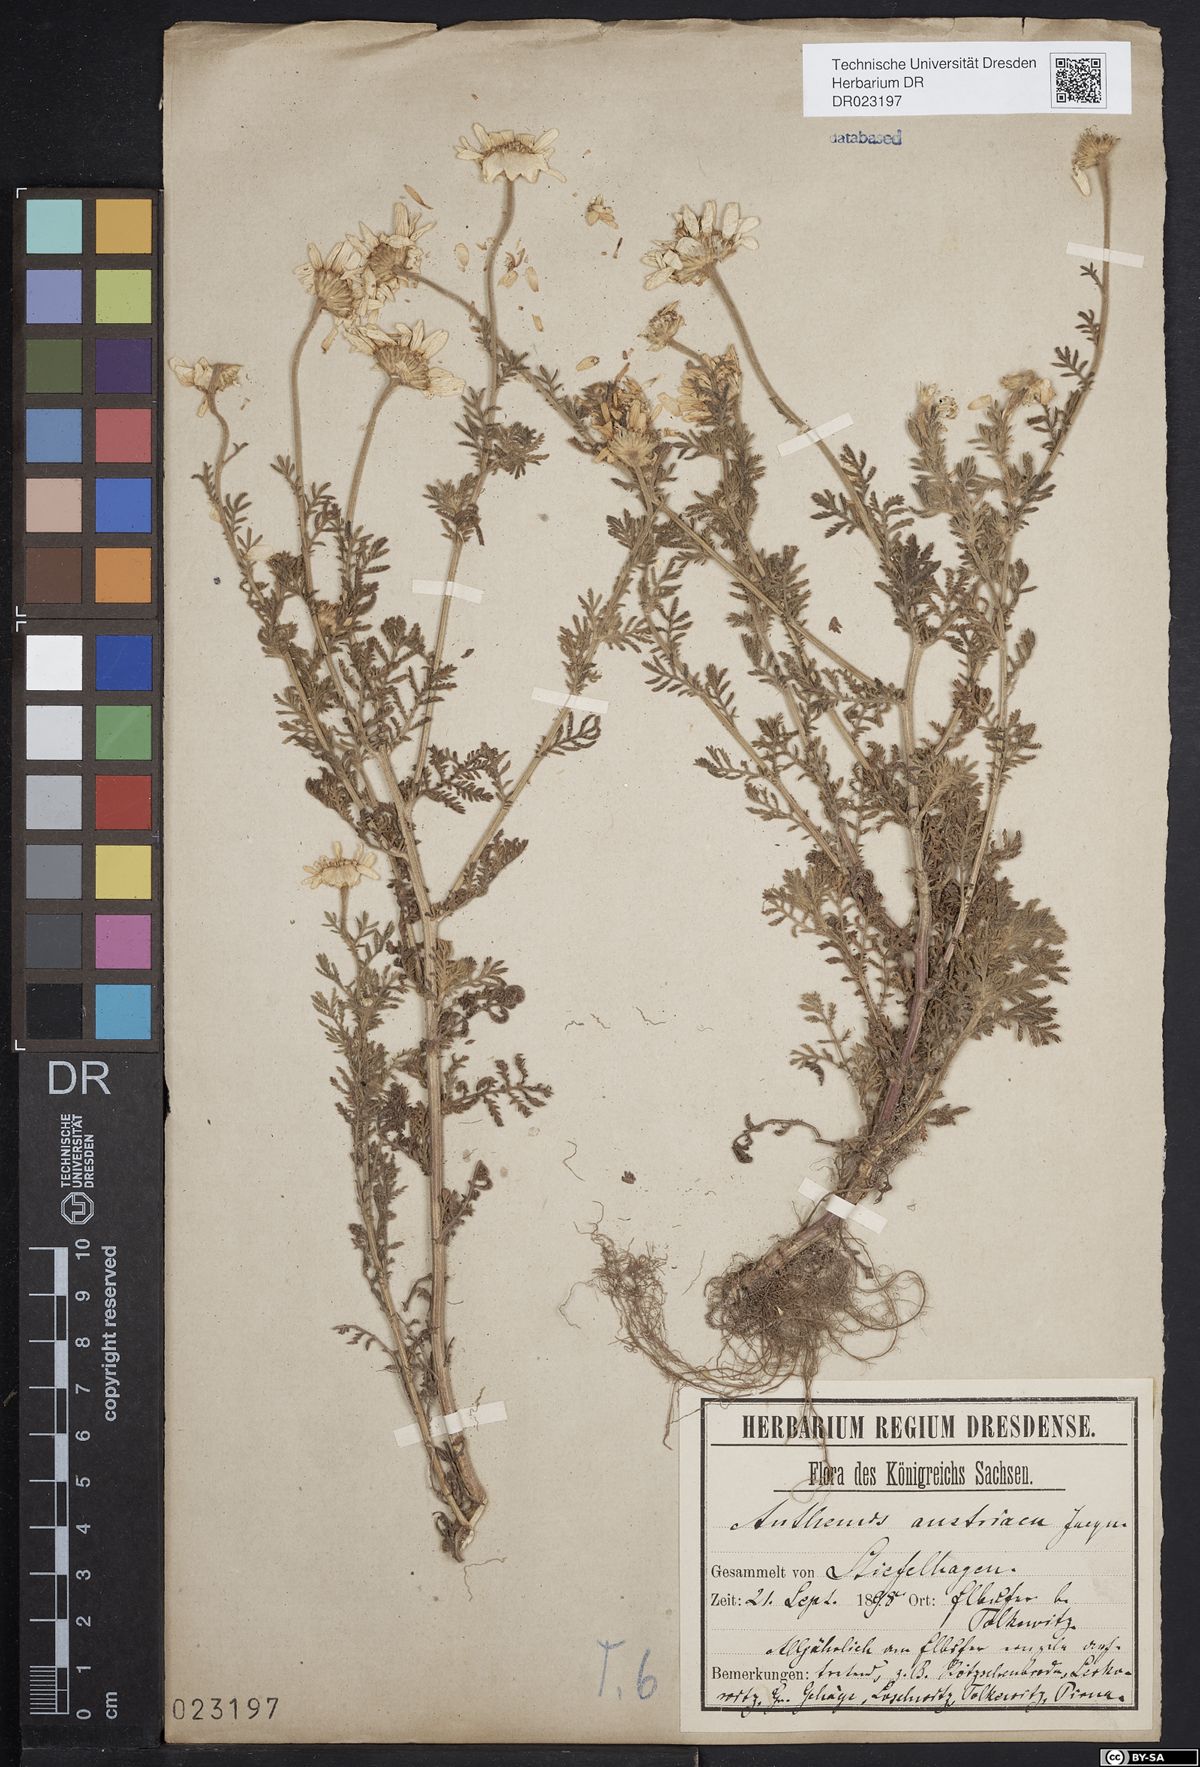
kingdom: Plantae
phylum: Tracheophyta
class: Magnoliopsida
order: Asterales
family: Asteraceae
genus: Cota
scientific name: Cota austriaca
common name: Austrian chamomile
